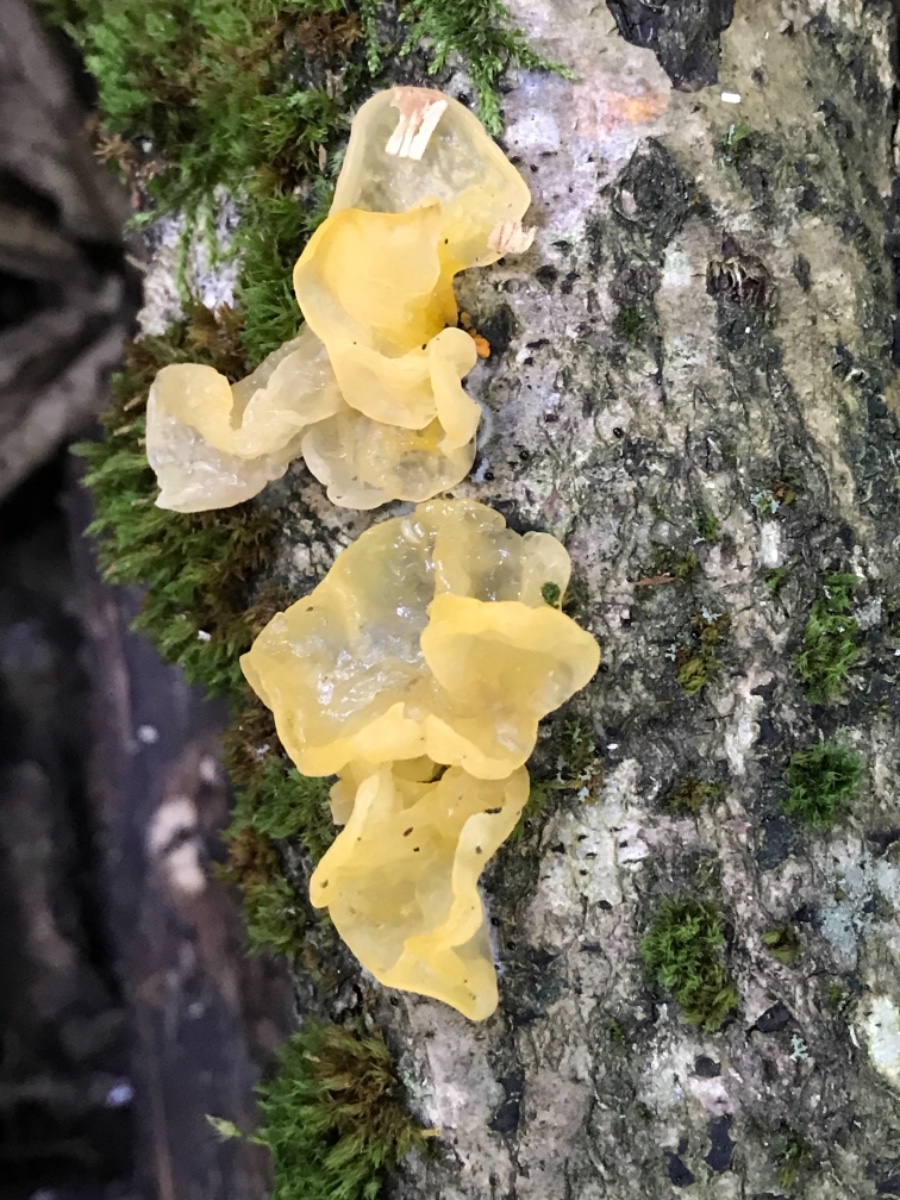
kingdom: Fungi
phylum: Basidiomycota
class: Tremellomycetes
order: Tremellales
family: Tremellaceae
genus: Tremella
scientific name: Tremella mesenterica
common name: gul bævresvamp
